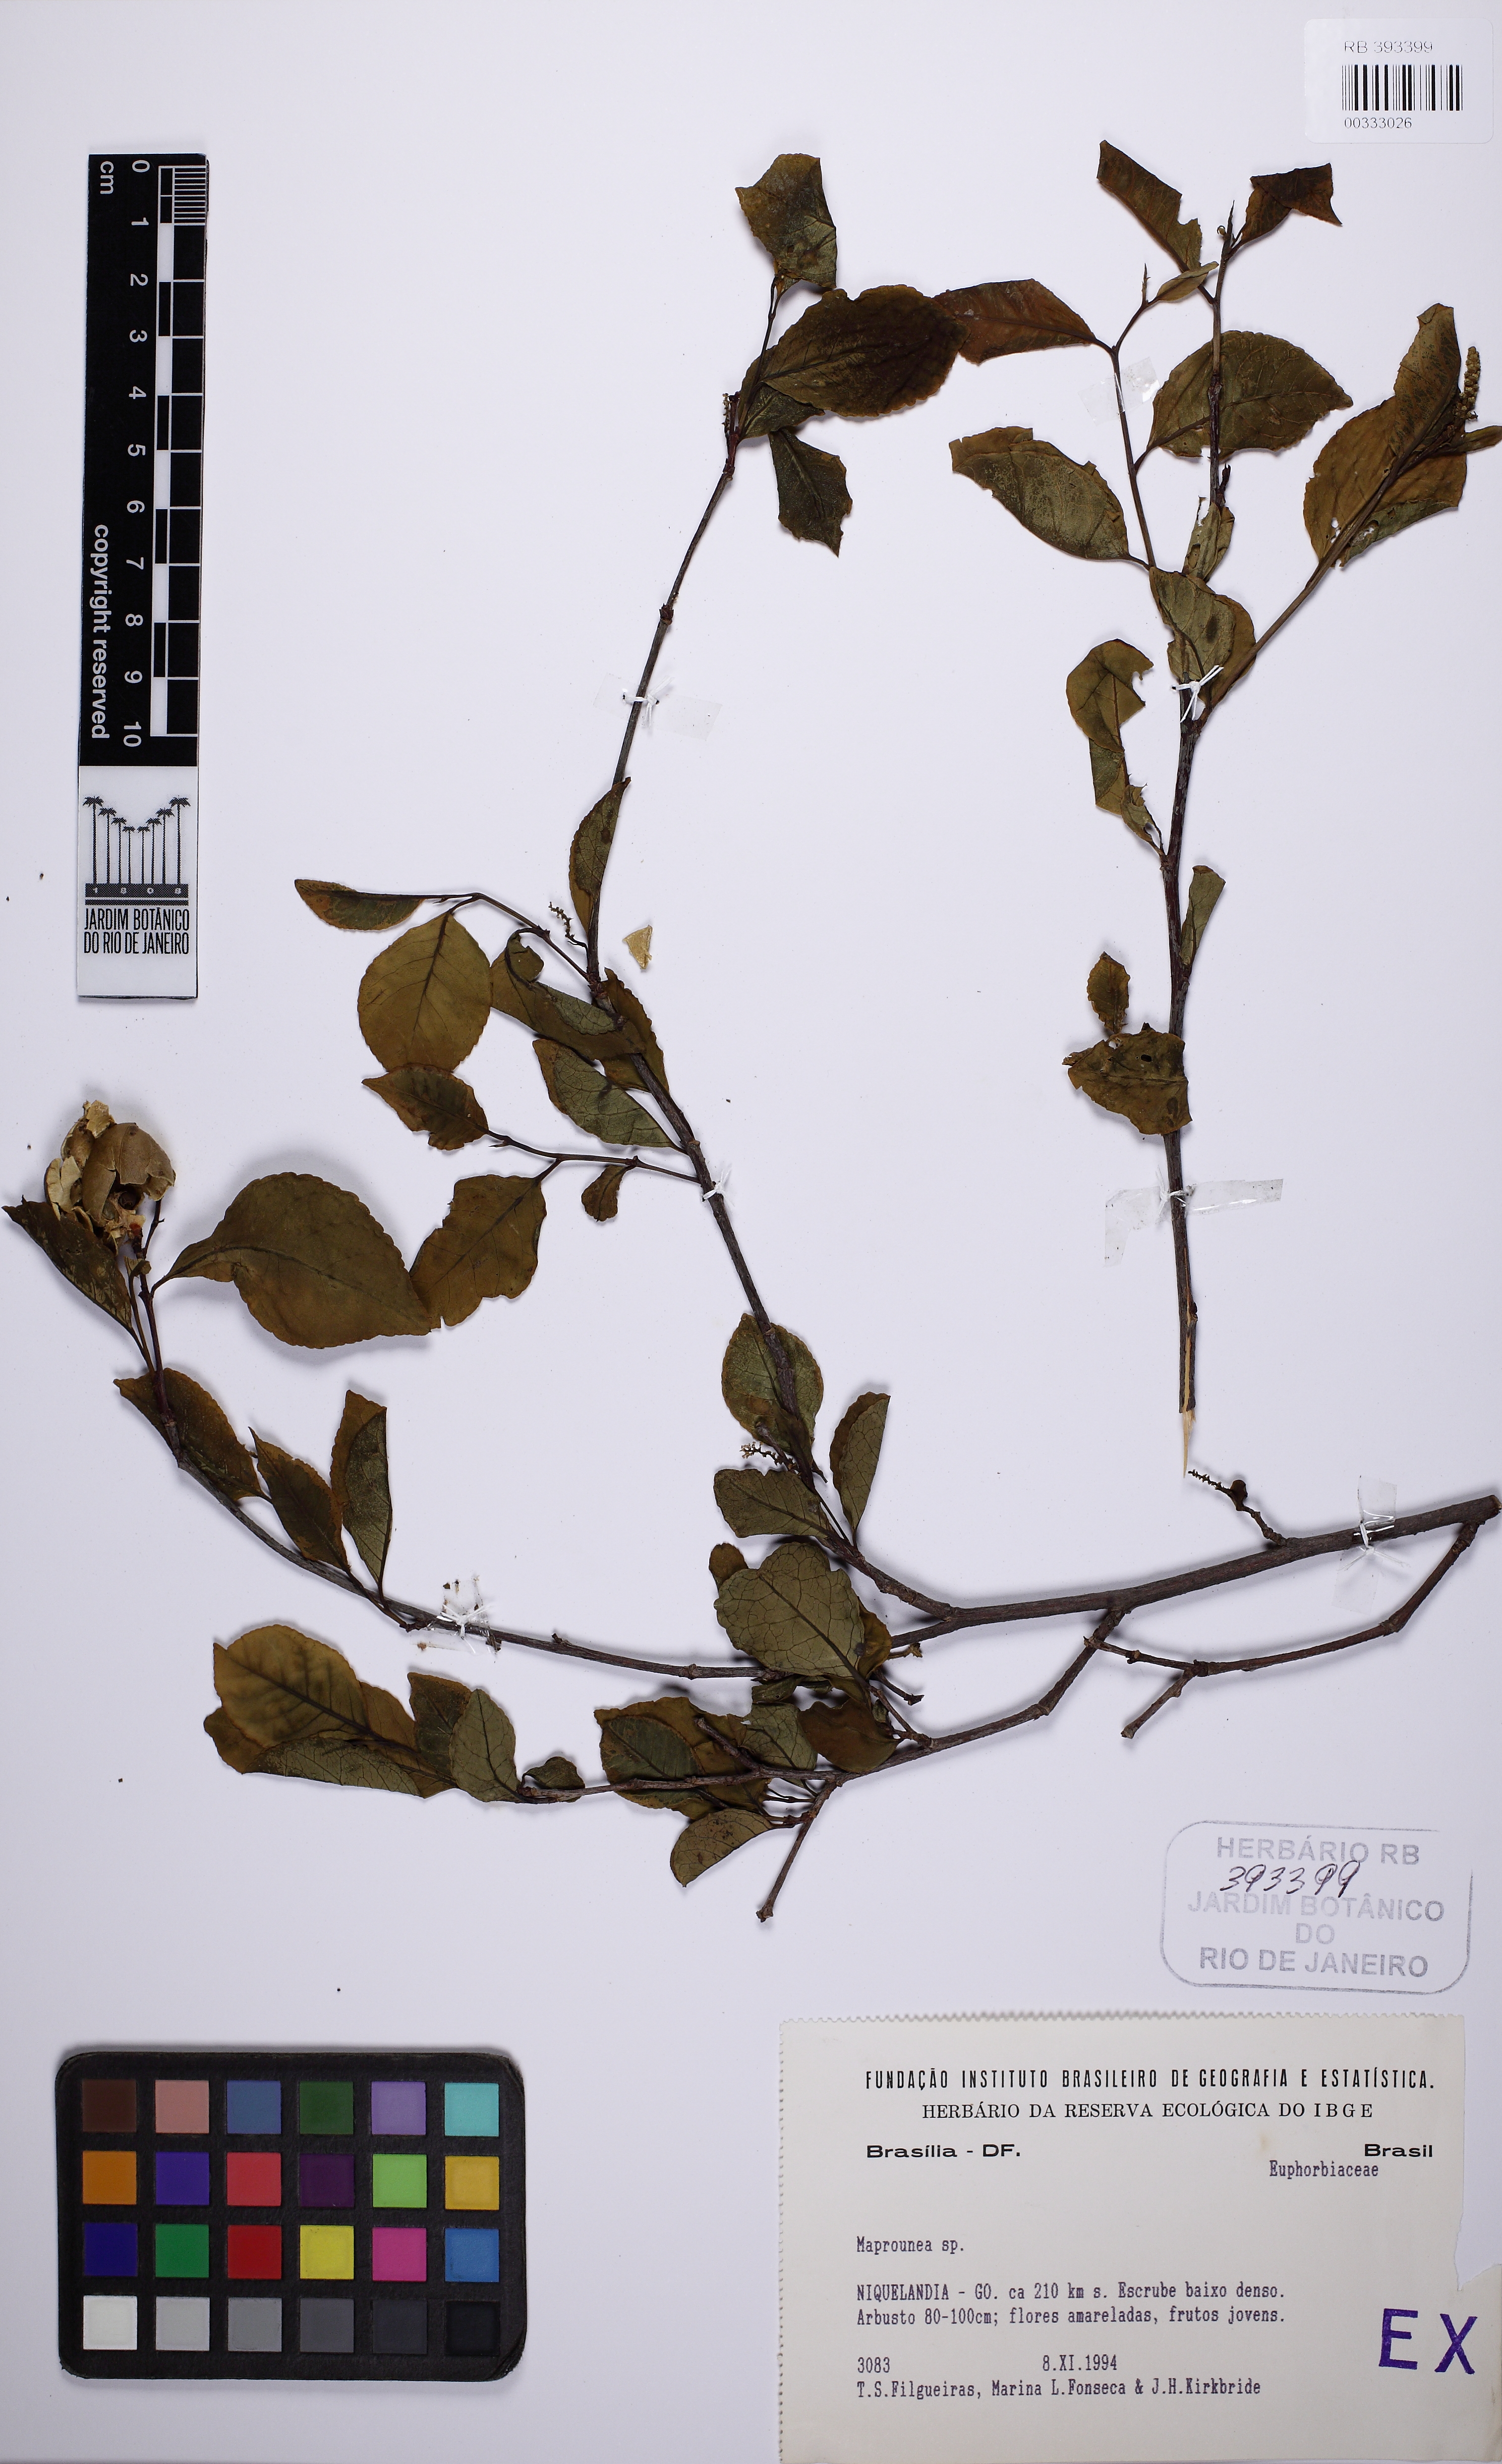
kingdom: Plantae
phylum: Tracheophyta
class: Magnoliopsida
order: Malpighiales
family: Euphorbiaceae
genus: Maprounea
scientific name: Maprounea
